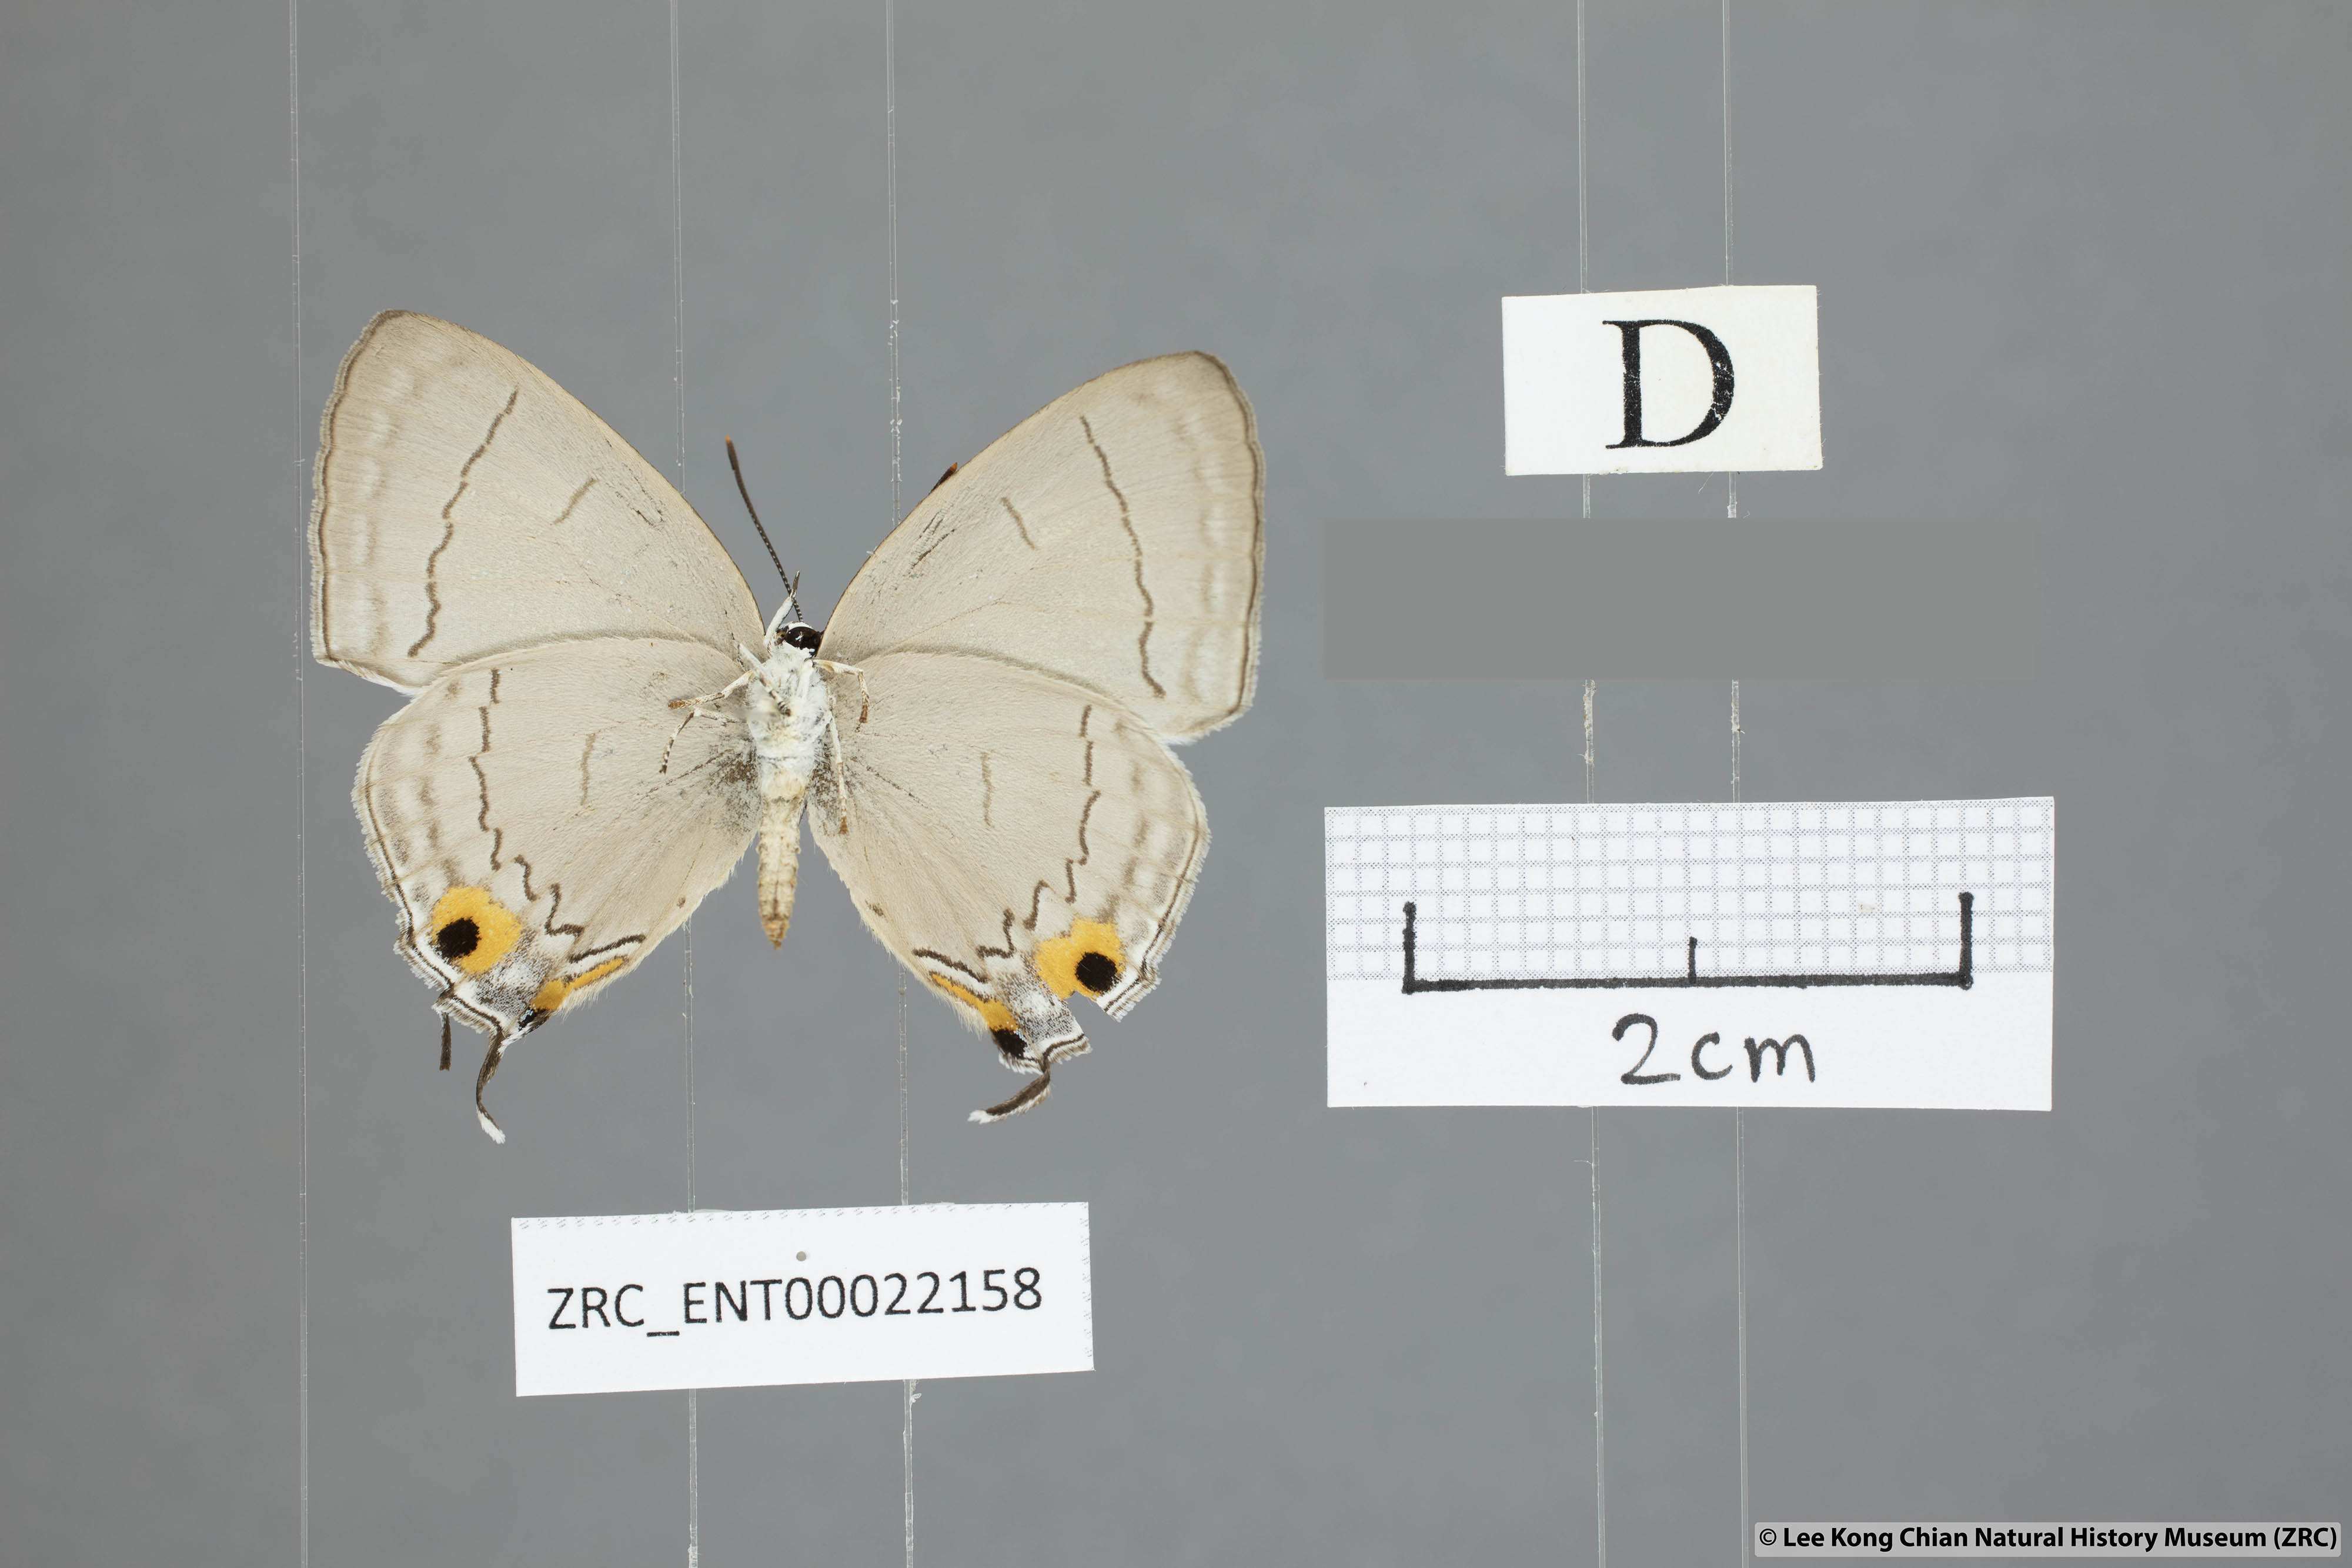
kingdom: Animalia
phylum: Arthropoda
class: Insecta
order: Lepidoptera
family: Lycaenidae
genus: Tajuria
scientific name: Tajuria jalajala
